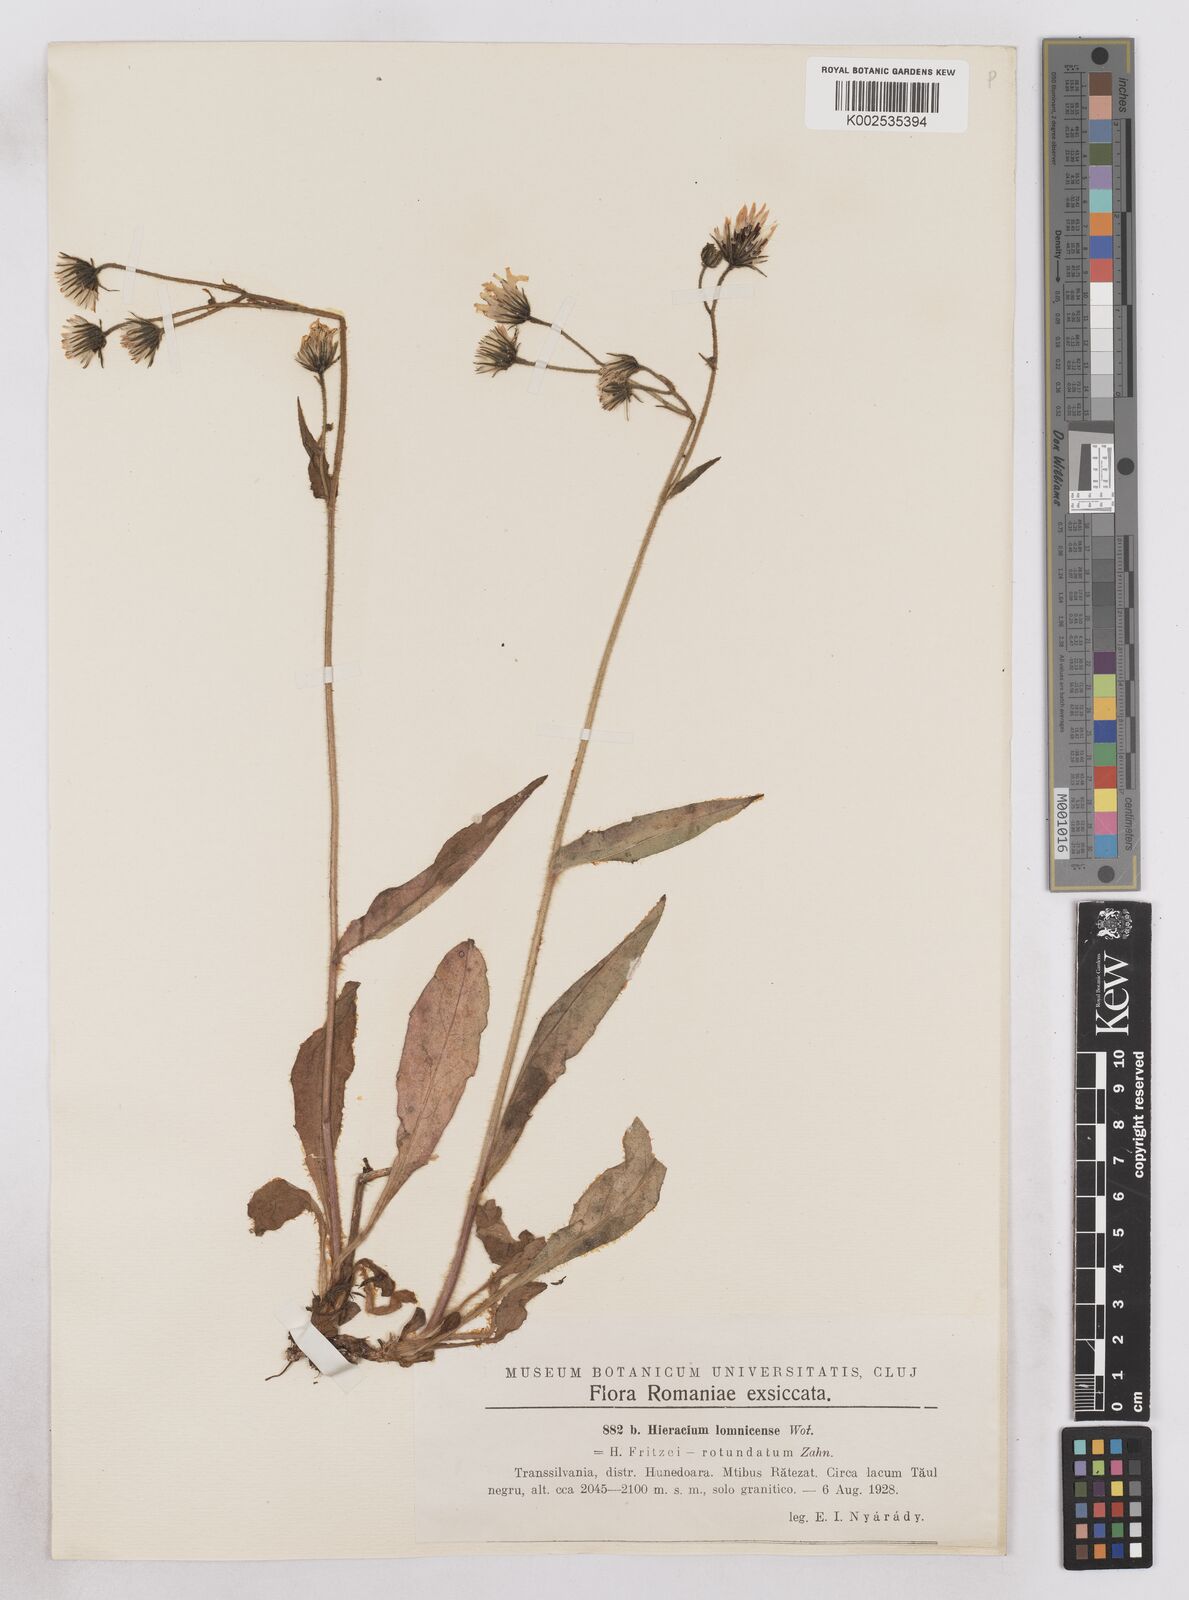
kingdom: Plantae
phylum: Tracheophyta
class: Magnoliopsida
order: Asterales
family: Asteraceae
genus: Hieracium
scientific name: Hieracium lomnicense
